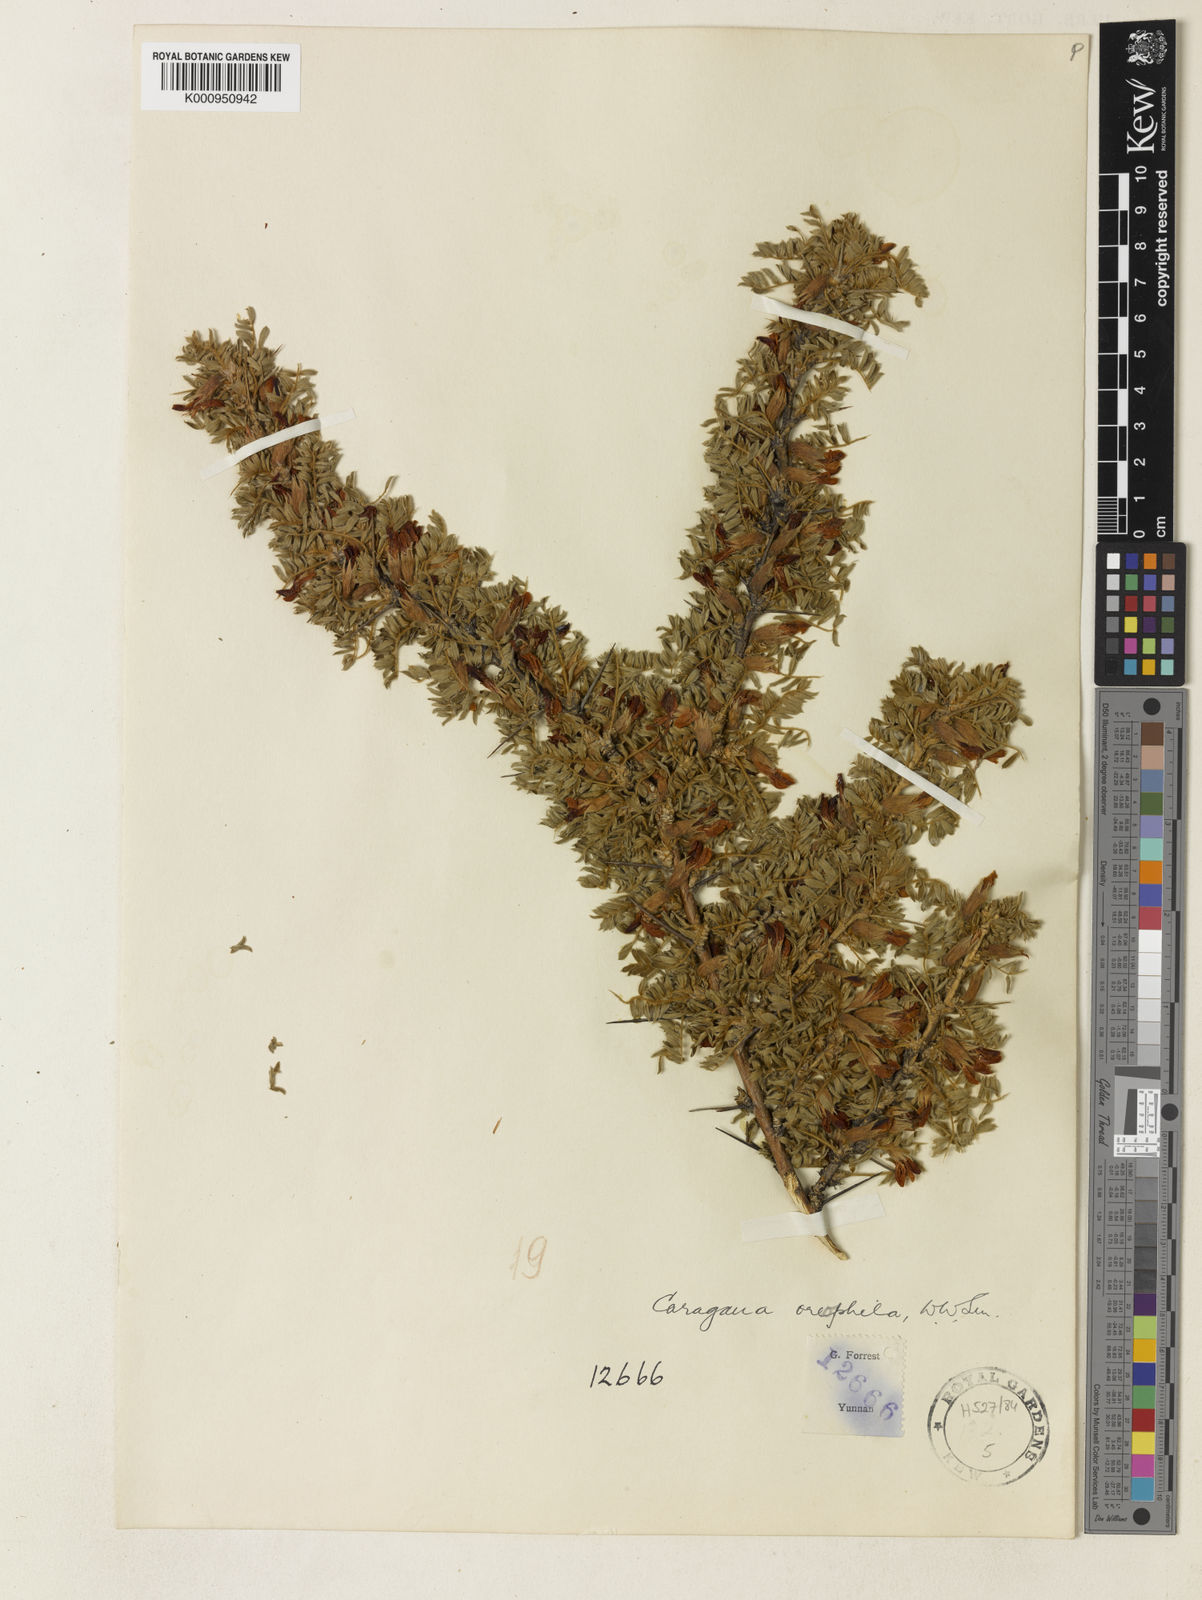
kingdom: Plantae
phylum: Tracheophyta
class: Magnoliopsida
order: Fabales
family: Fabaceae
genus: Caragana
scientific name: Caragana oreophila
